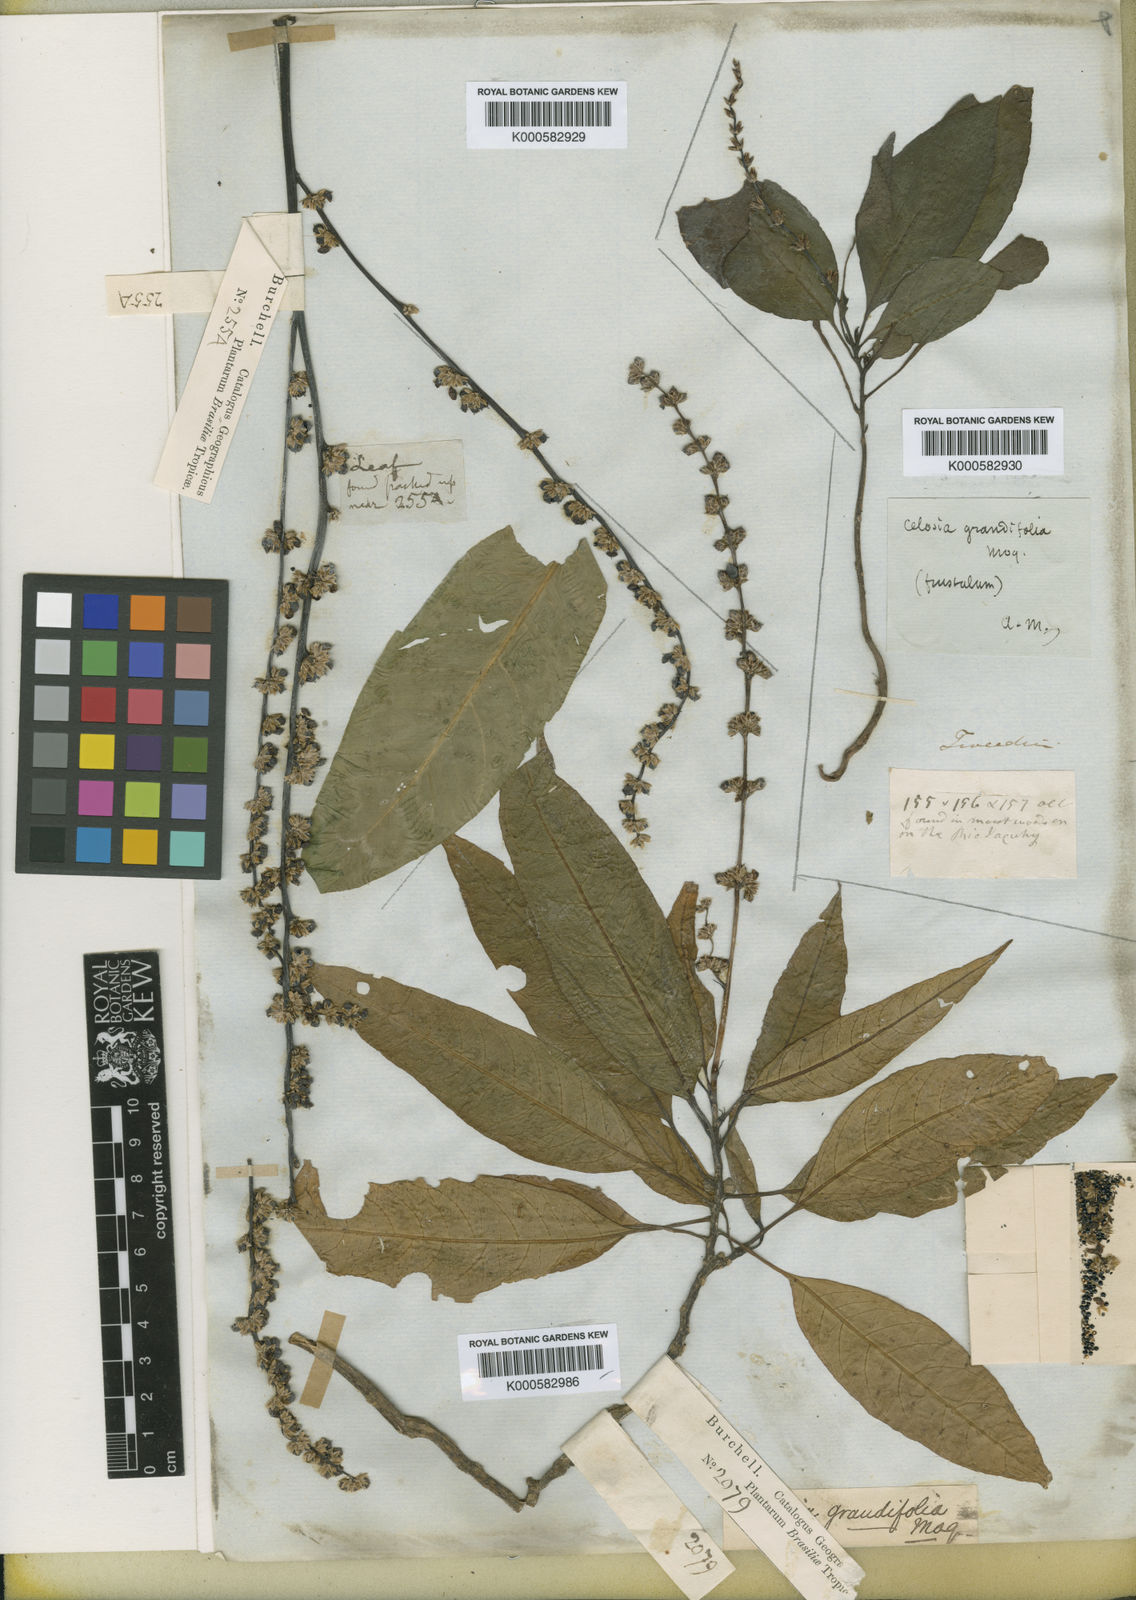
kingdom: Plantae
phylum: Tracheophyta
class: Magnoliopsida
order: Caryophyllales
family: Amaranthaceae
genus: Celosia
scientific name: Celosia grandifolia
